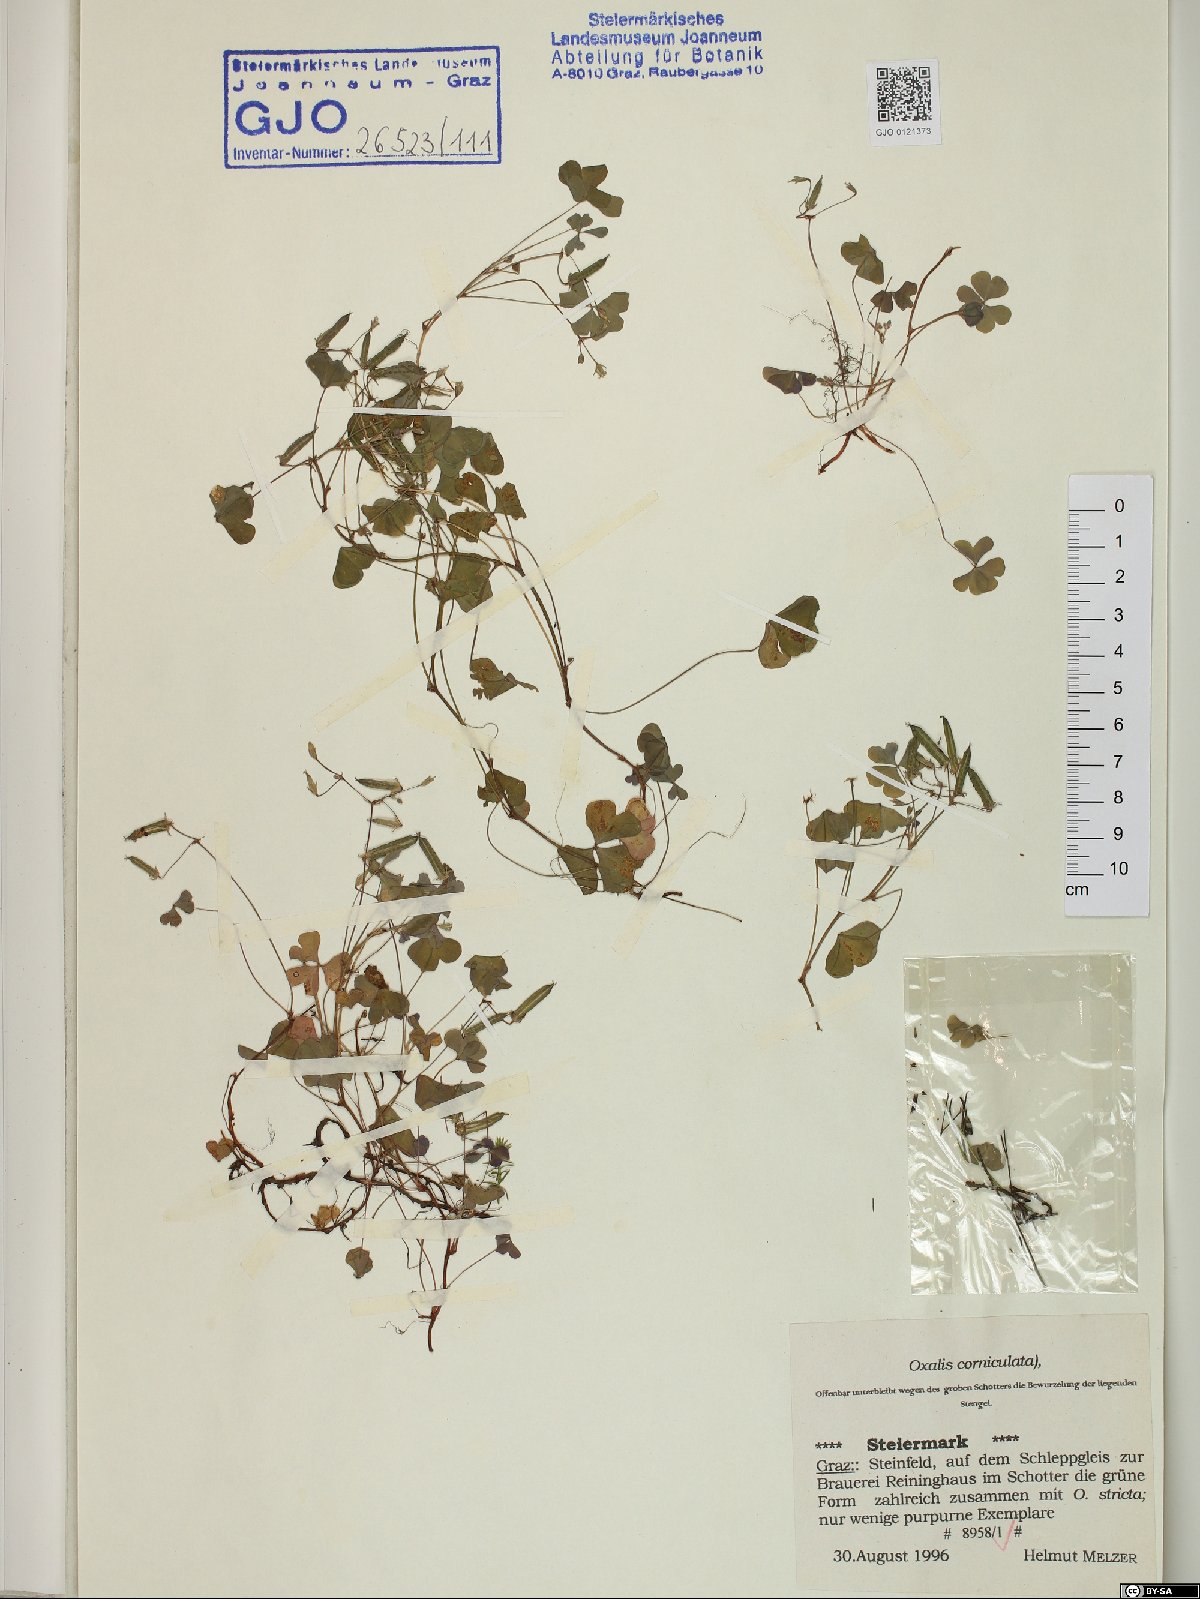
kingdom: Plantae
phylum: Tracheophyta
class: Magnoliopsida
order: Oxalidales
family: Oxalidaceae
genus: Oxalis
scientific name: Oxalis corniculata
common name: Procumbent yellow-sorrel
